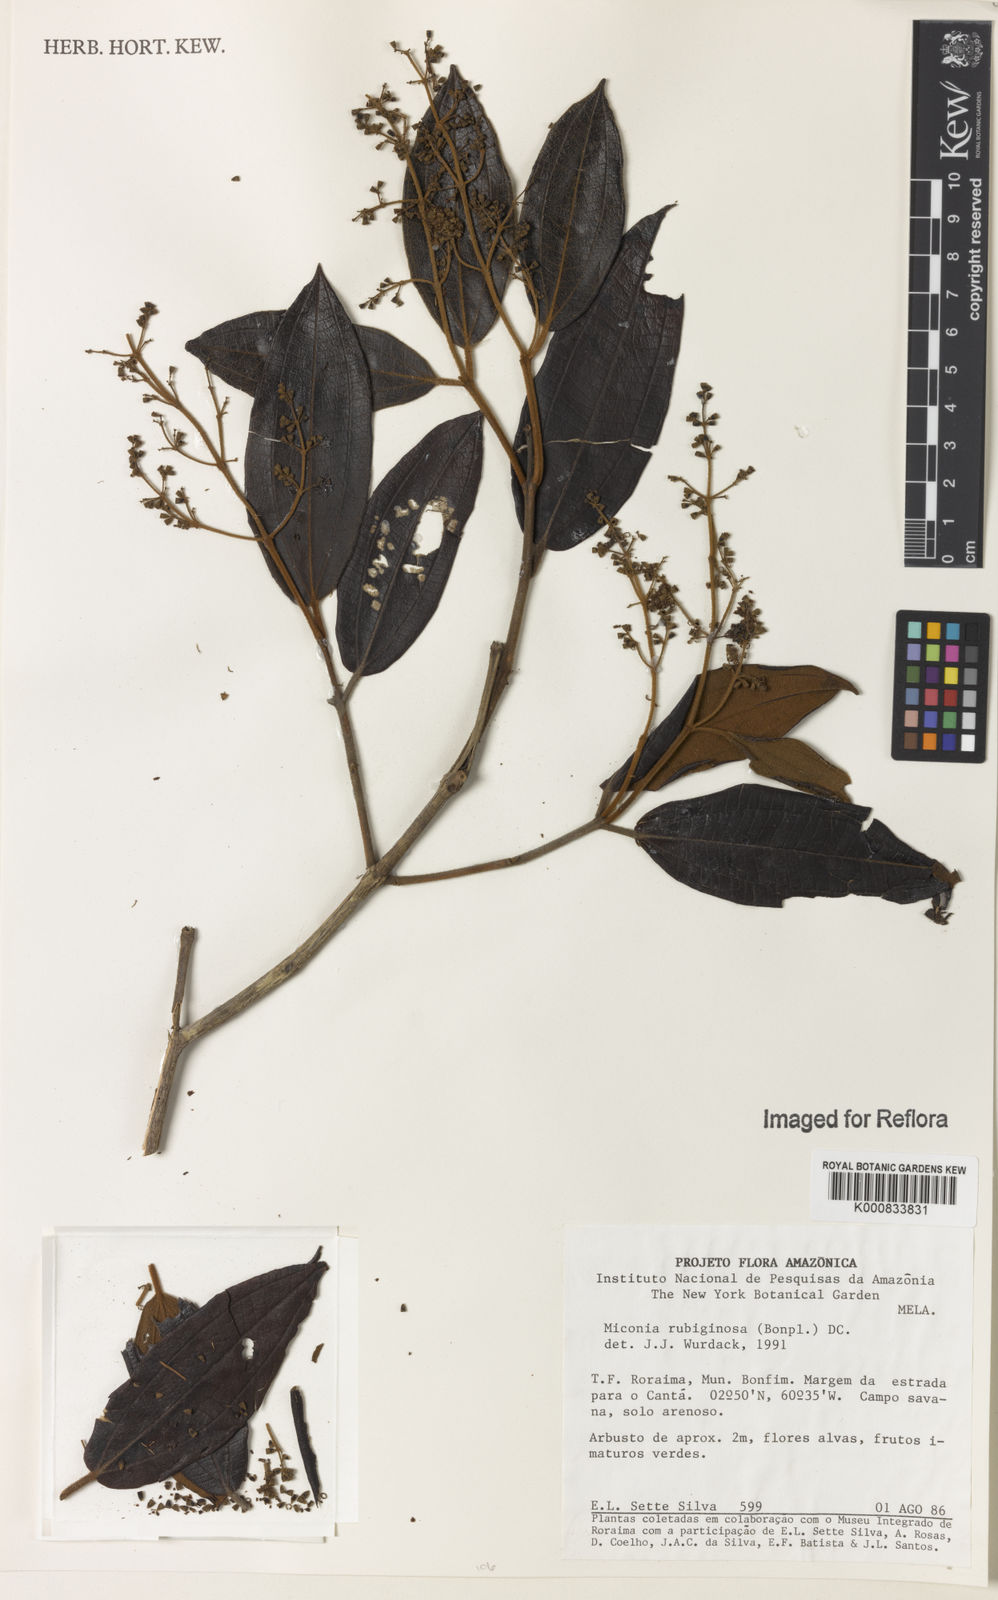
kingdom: Plantae
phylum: Tracheophyta
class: Magnoliopsida
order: Myrtales
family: Melastomataceae
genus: Miconia
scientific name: Miconia rubiginosa
